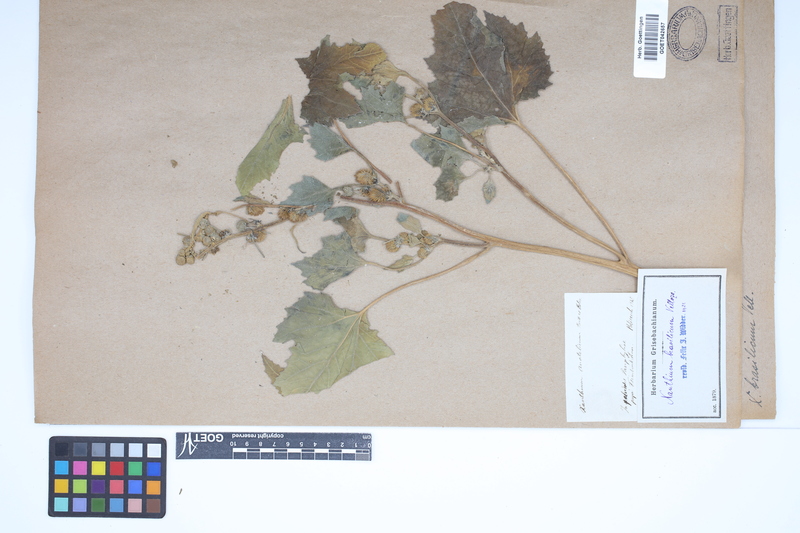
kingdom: Plantae
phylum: Tracheophyta
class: Magnoliopsida
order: Asterales
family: Asteraceae
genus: Xanthium
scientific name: Xanthium strumarium
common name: Rough cocklebur
